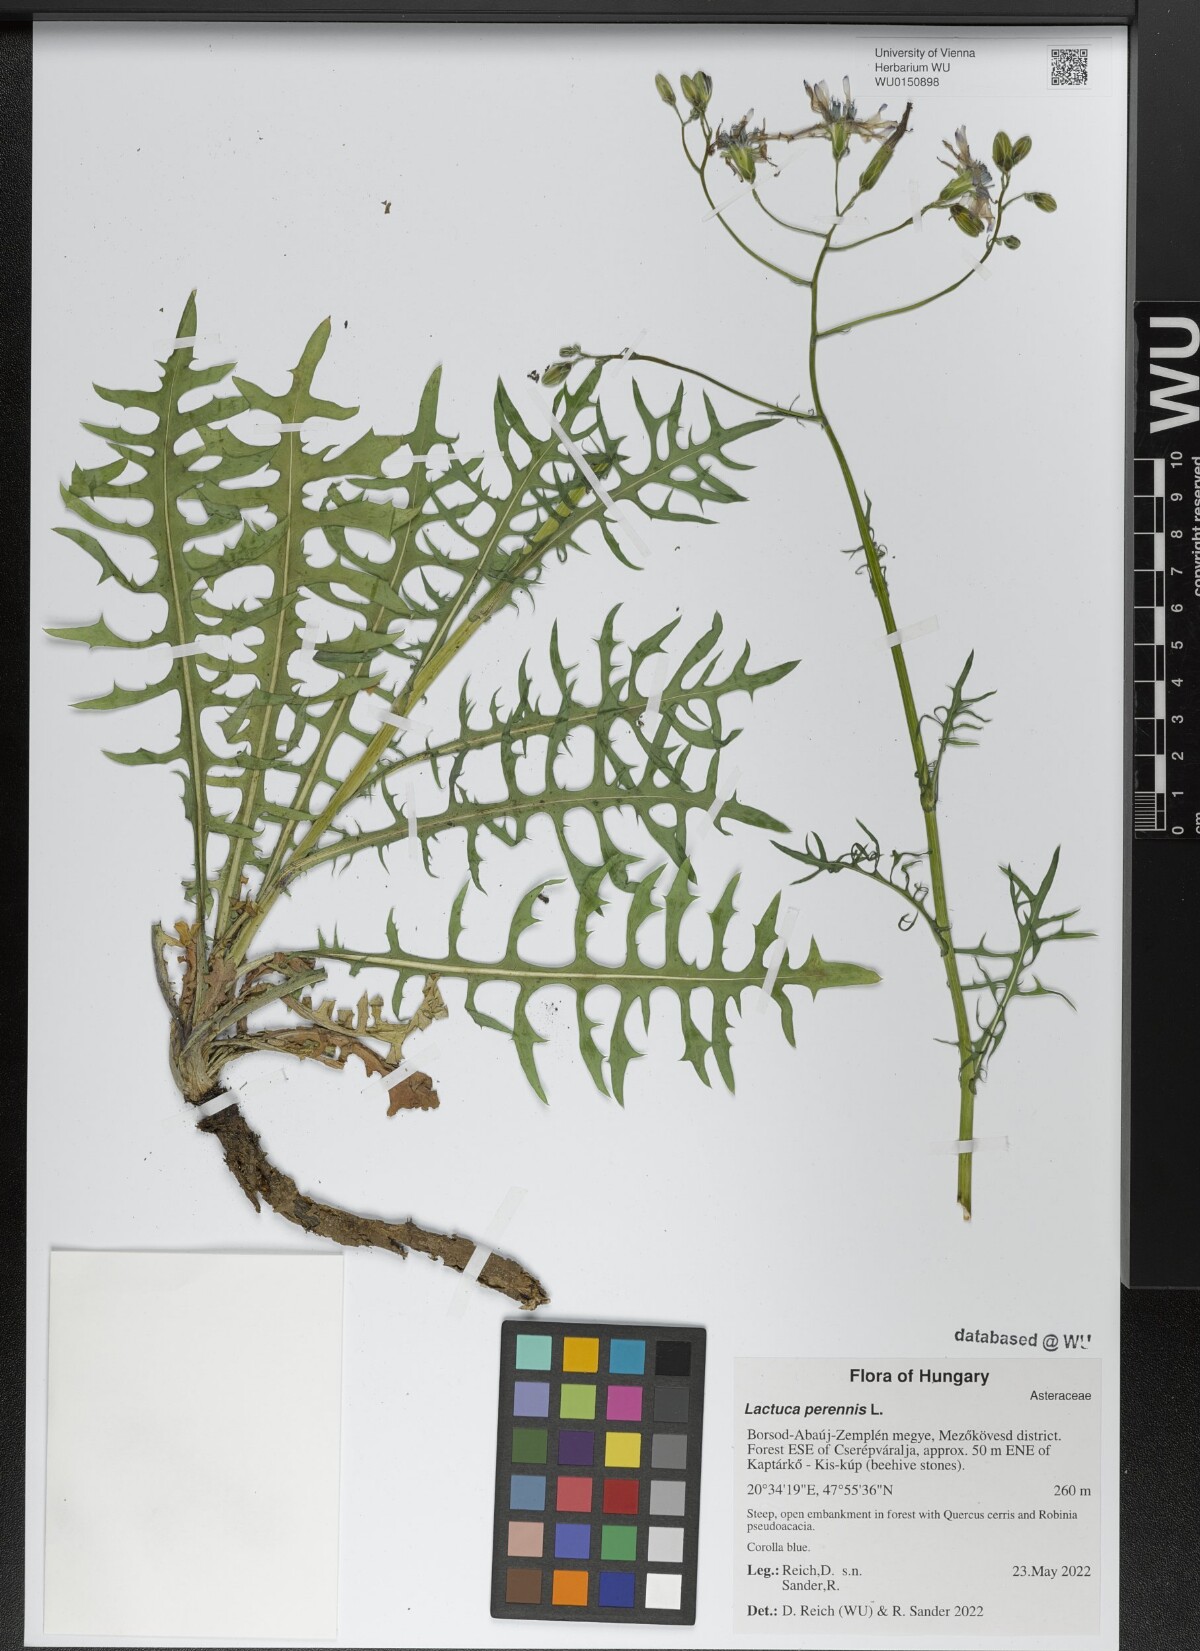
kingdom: Plantae
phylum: Tracheophyta
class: Magnoliopsida
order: Asterales
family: Asteraceae
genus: Lactuca
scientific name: Lactuca perennis
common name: Mountain lettuce
